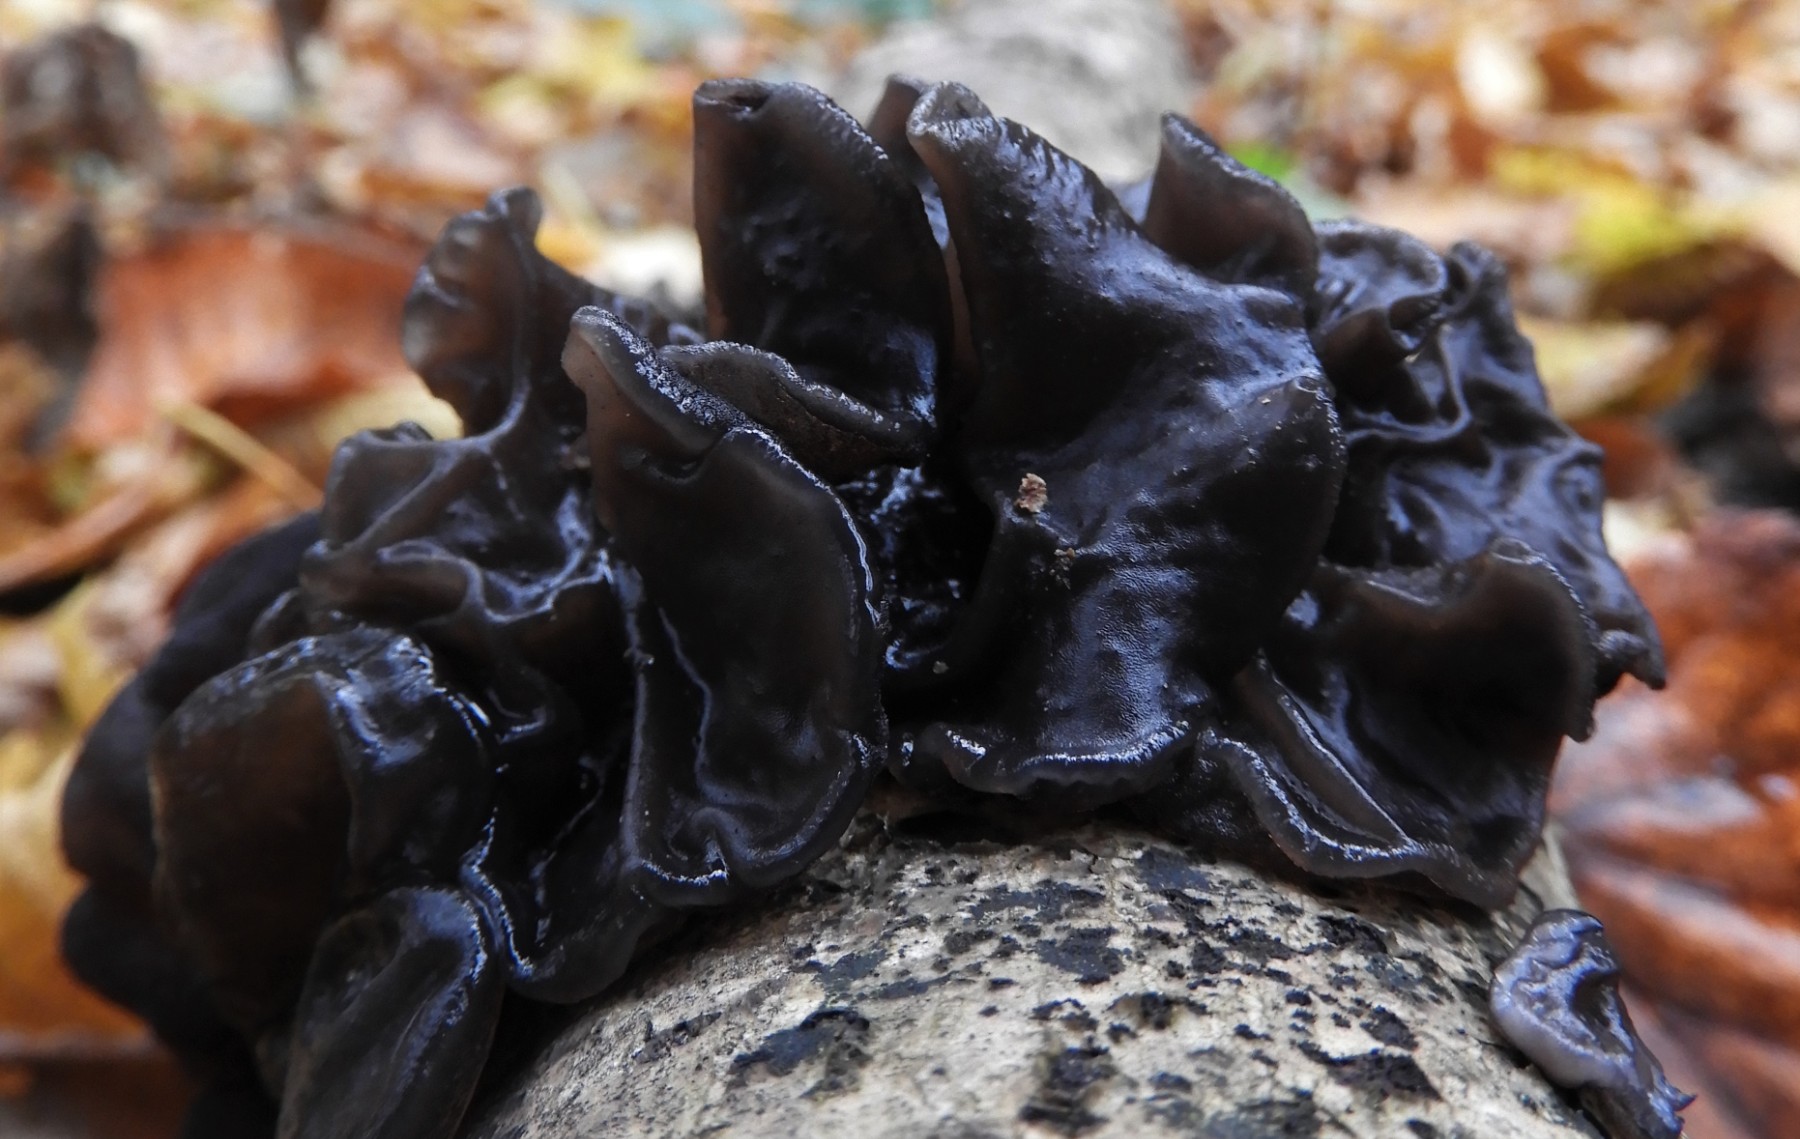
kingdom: Fungi
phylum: Basidiomycota
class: Agaricomycetes
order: Auriculariales
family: Auriculariaceae
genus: Exidia
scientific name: Exidia glandulosa
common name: ege-bævretop
